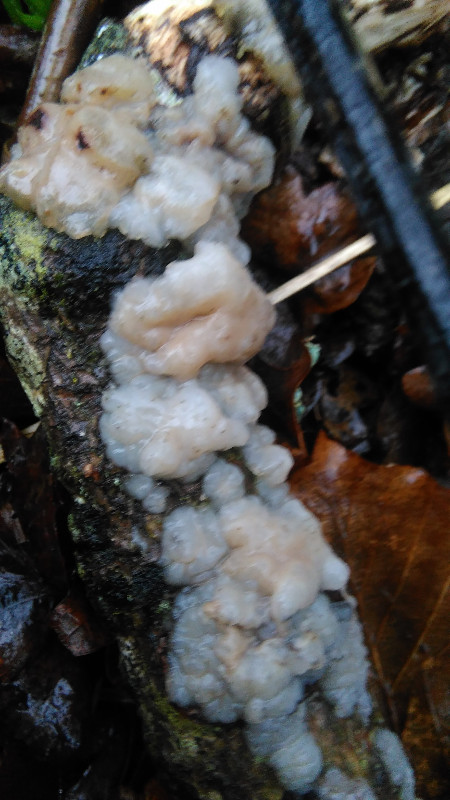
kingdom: Fungi
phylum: Basidiomycota
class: Agaricomycetes
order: Auriculariales
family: Auriculariaceae
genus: Exidia
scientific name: Exidia thuretiana
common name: hvidlig bævretop
